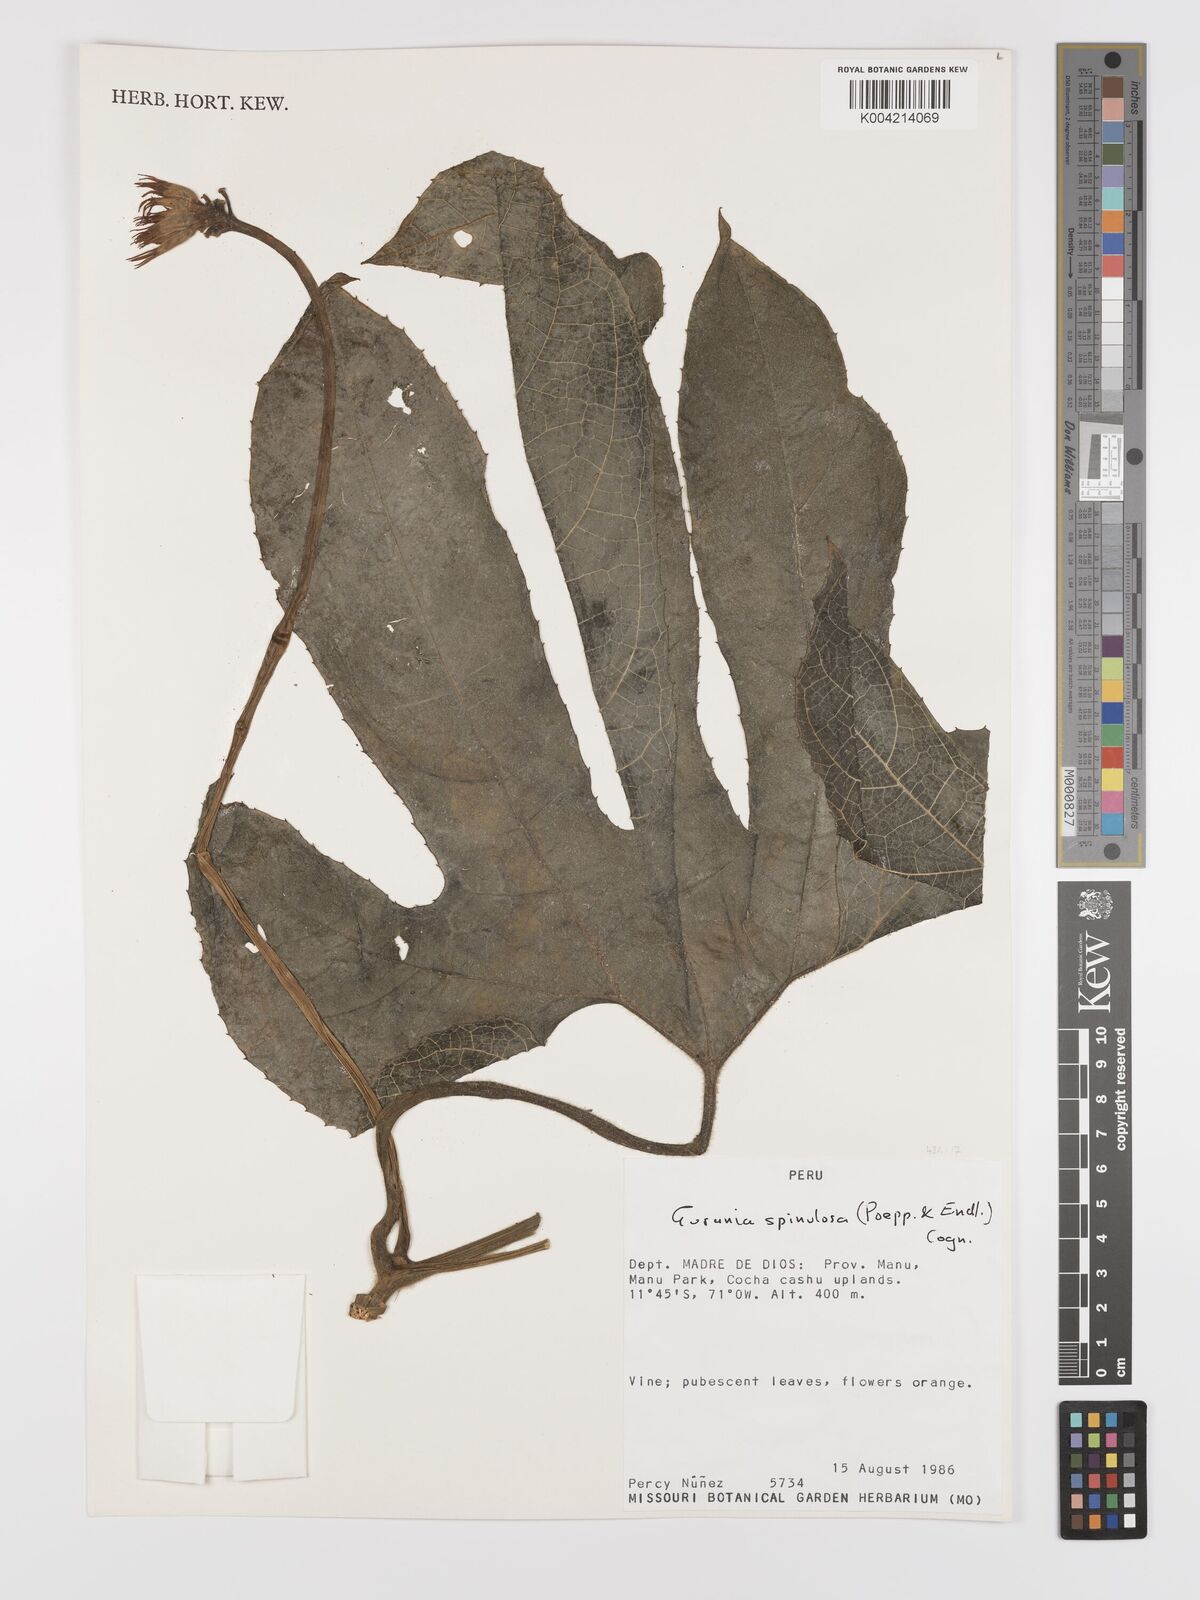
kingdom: Plantae
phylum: Tracheophyta
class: Magnoliopsida
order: Cucurbitales
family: Cucurbitaceae
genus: Gurania
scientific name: Gurania lobata
